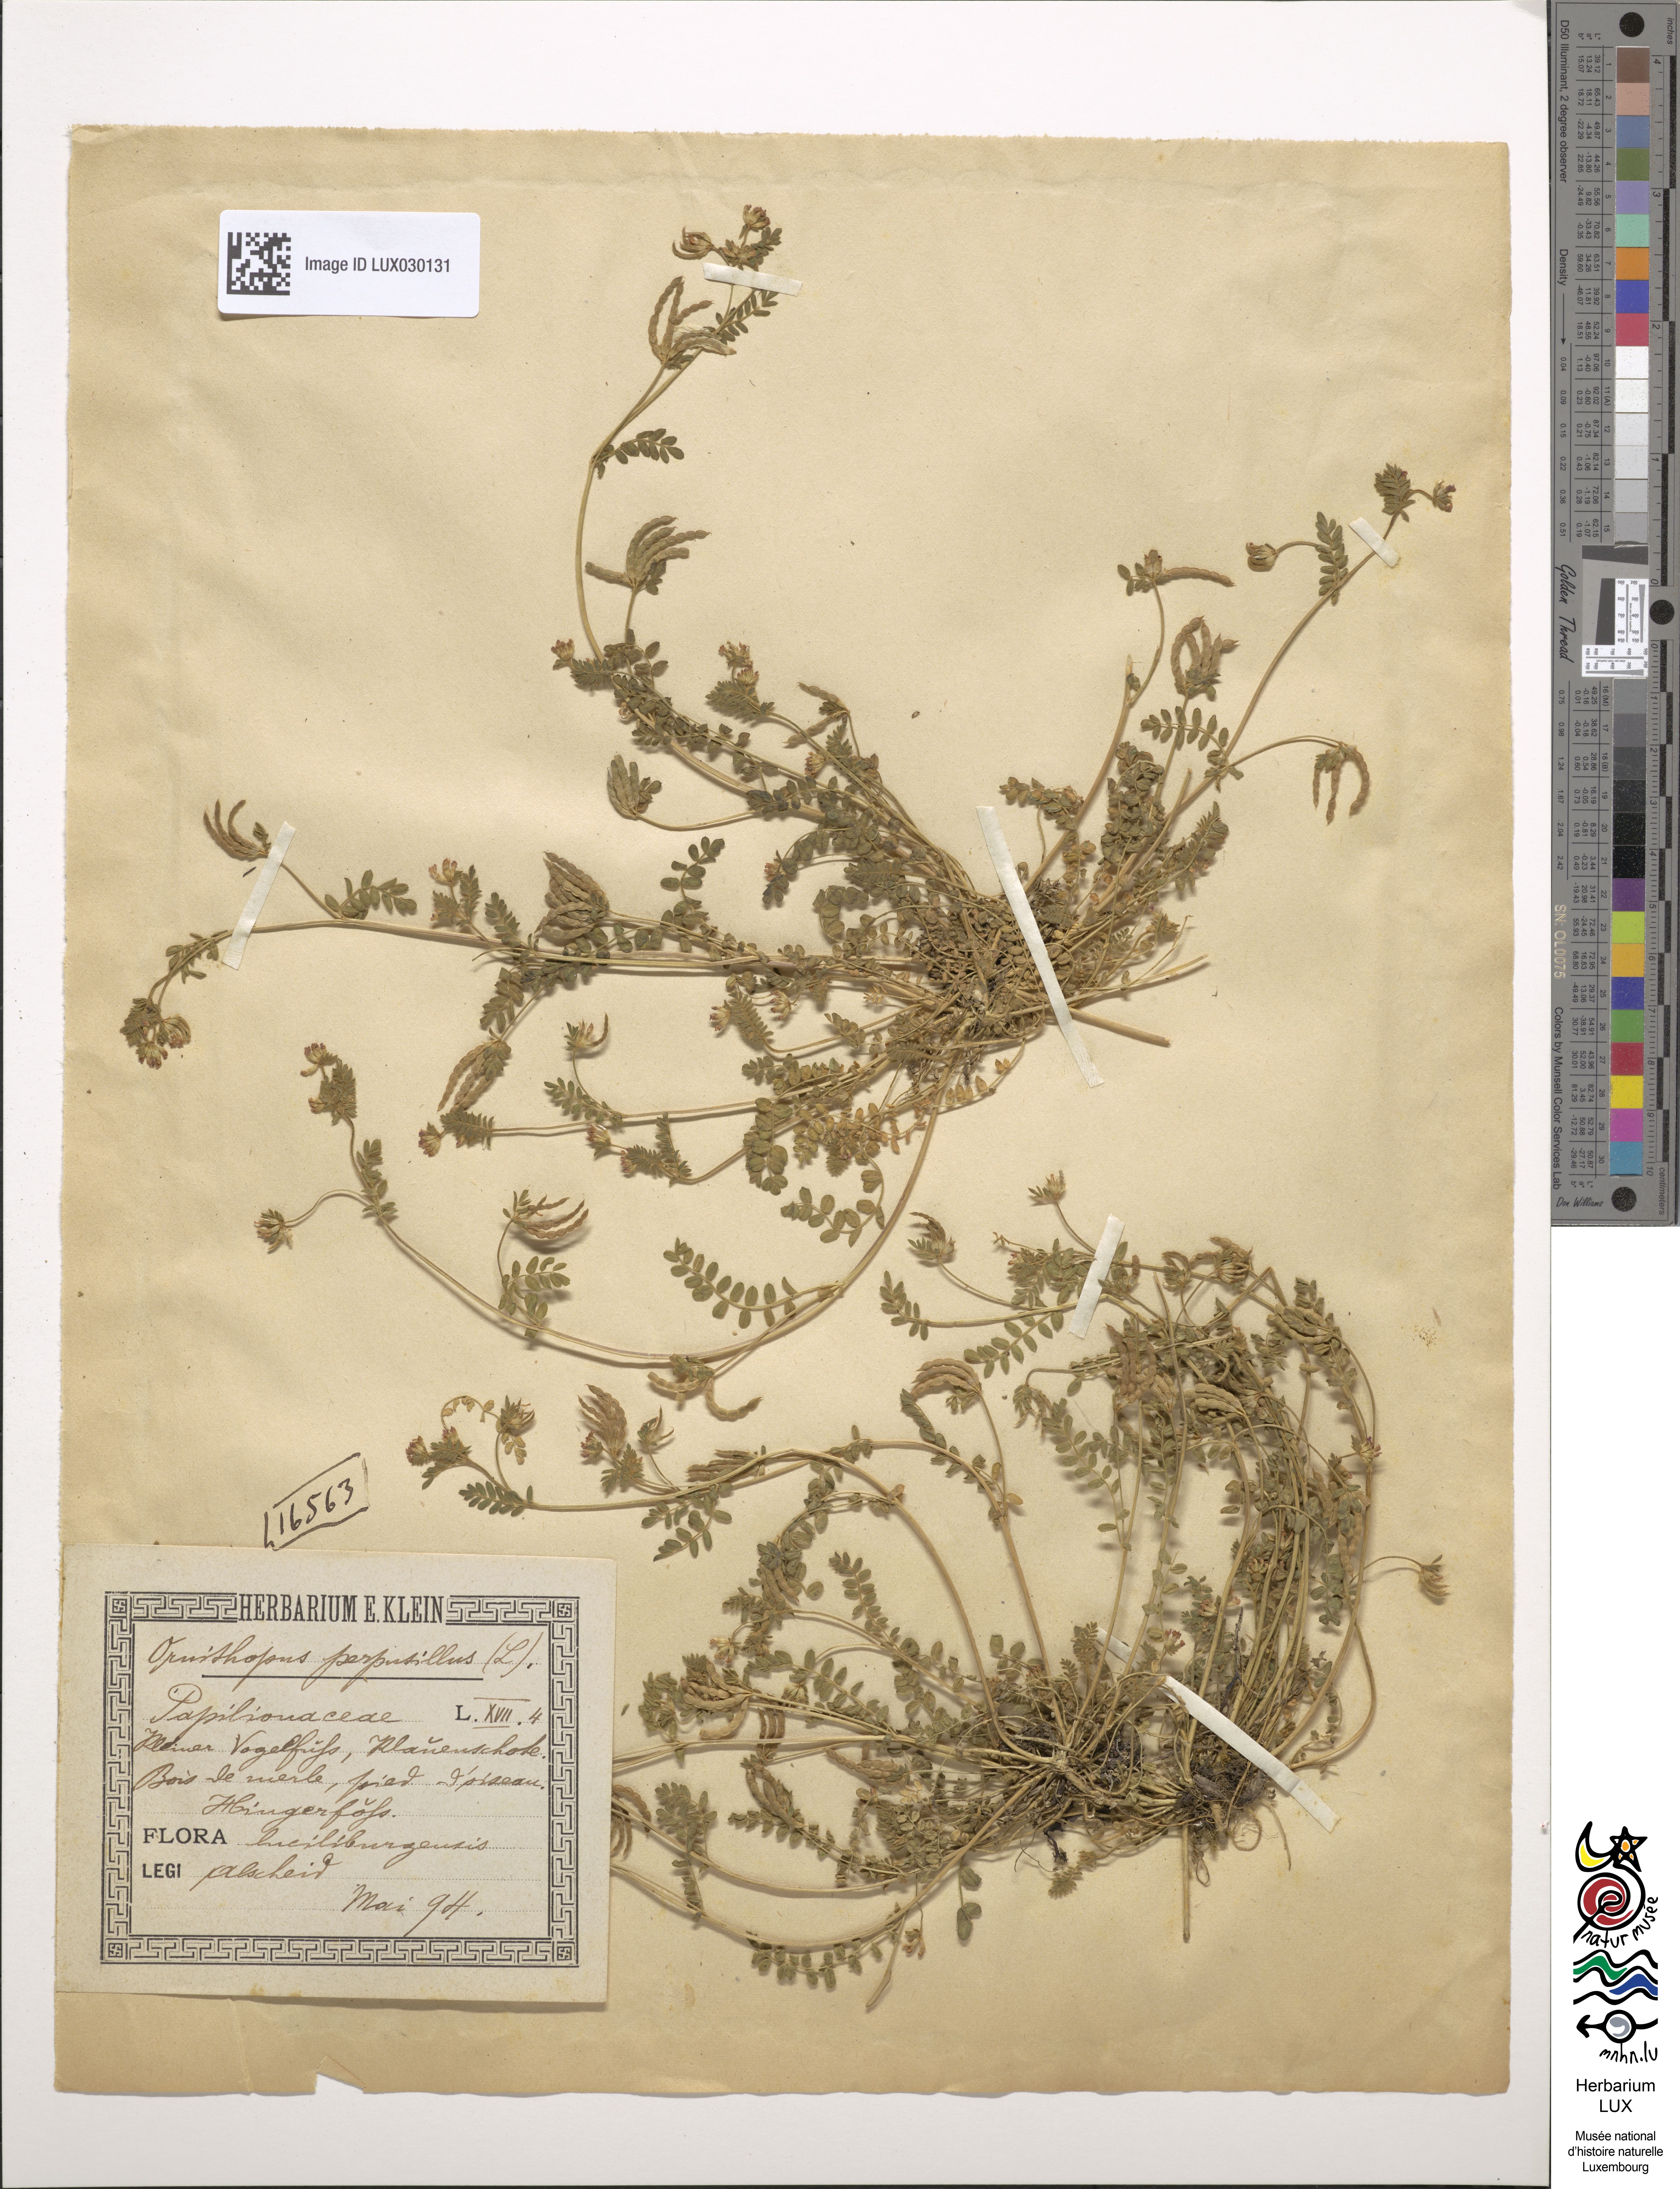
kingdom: Plantae
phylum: Tracheophyta
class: Magnoliopsida
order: Fabales
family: Fabaceae
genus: Ornithopus
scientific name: Ornithopus perpusillus
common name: Bird's-foot
